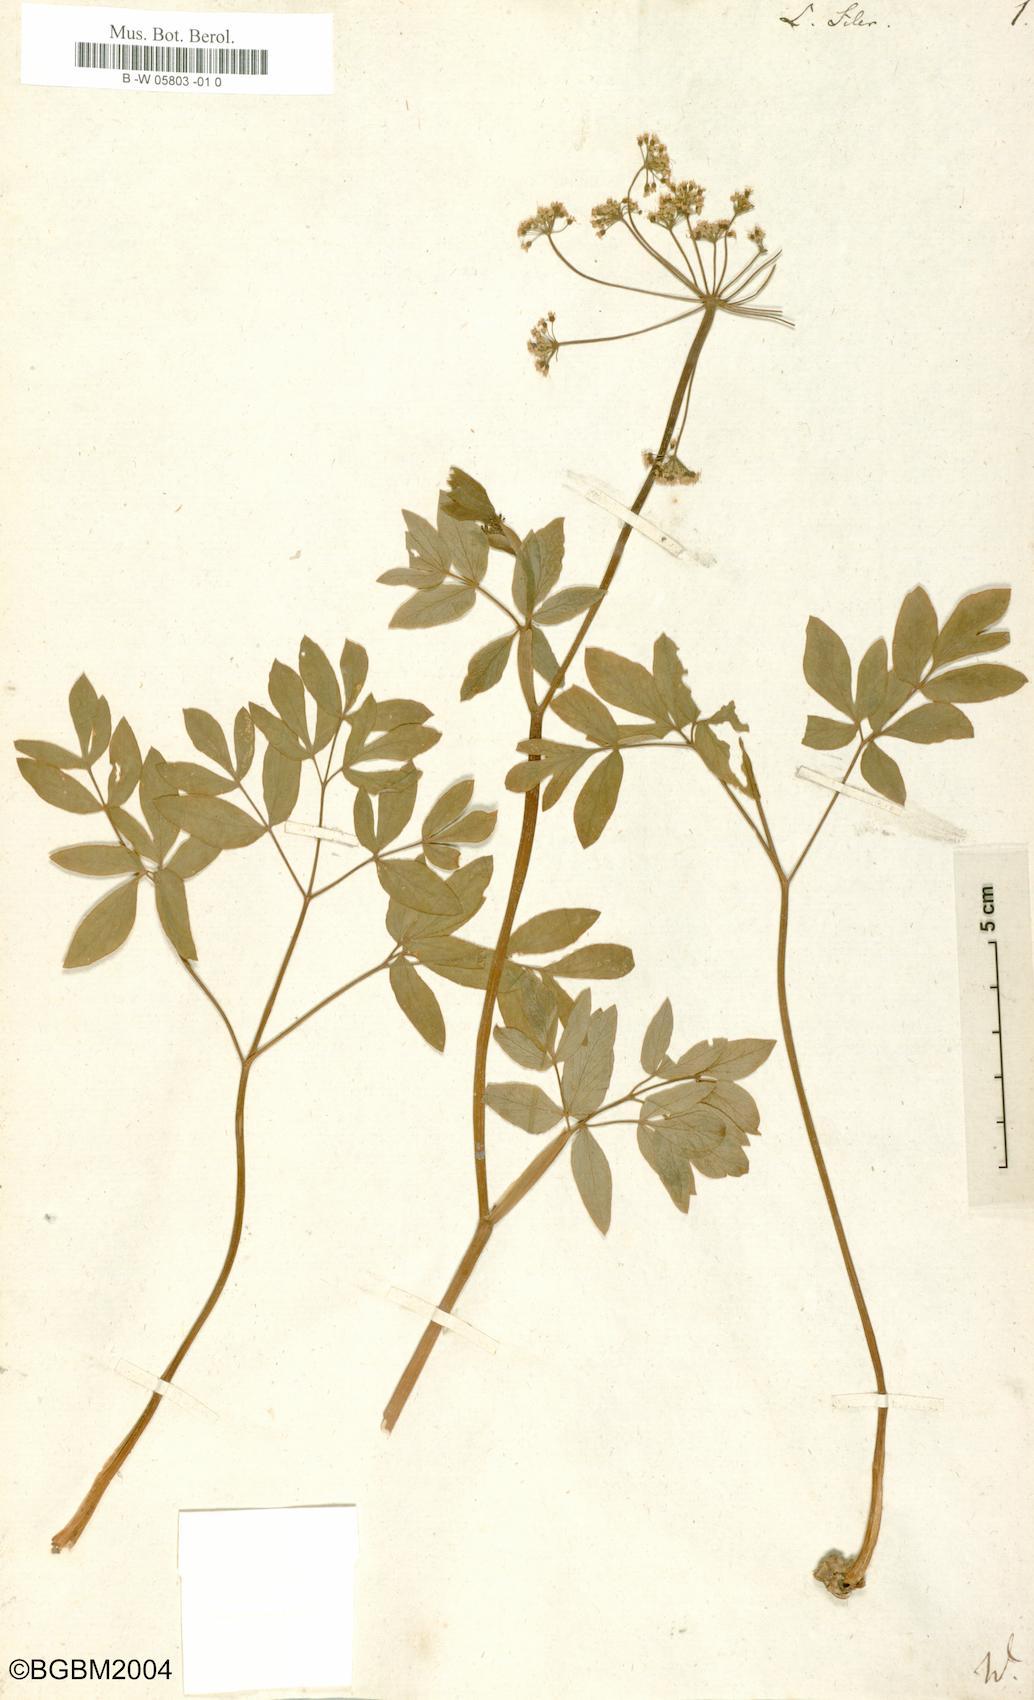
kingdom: Plantae
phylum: Tracheophyta
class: Magnoliopsida
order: Apiales
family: Apiaceae
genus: Siler
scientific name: Siler montanum
